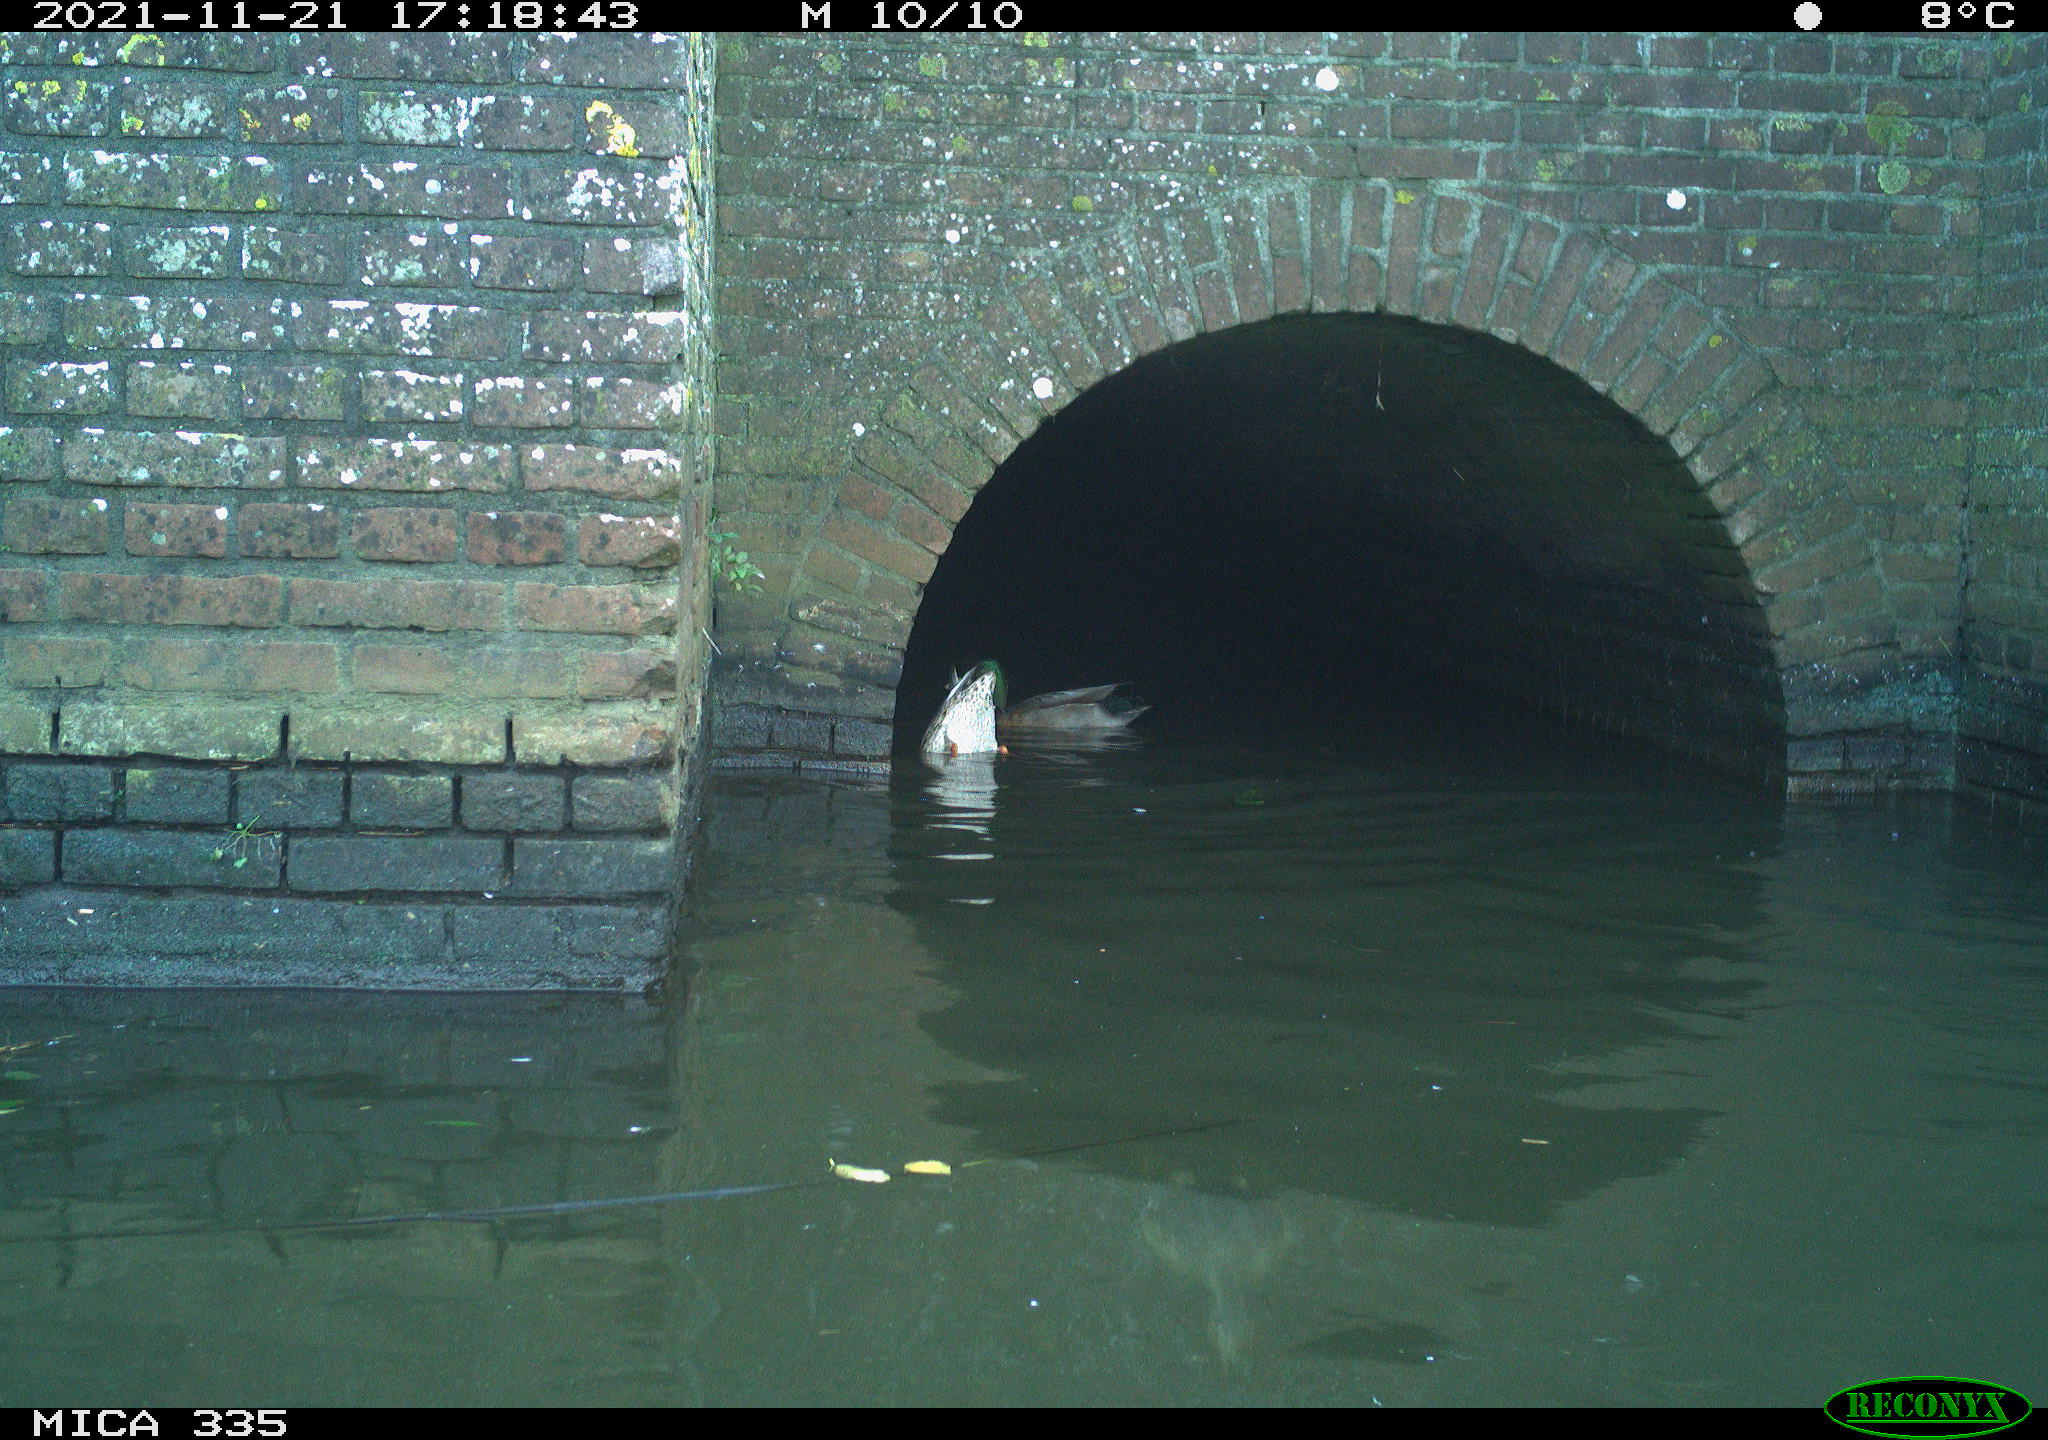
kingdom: Animalia
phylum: Chordata
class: Aves
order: Anseriformes
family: Anatidae
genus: Anas
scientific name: Anas platyrhynchos
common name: Mallard
